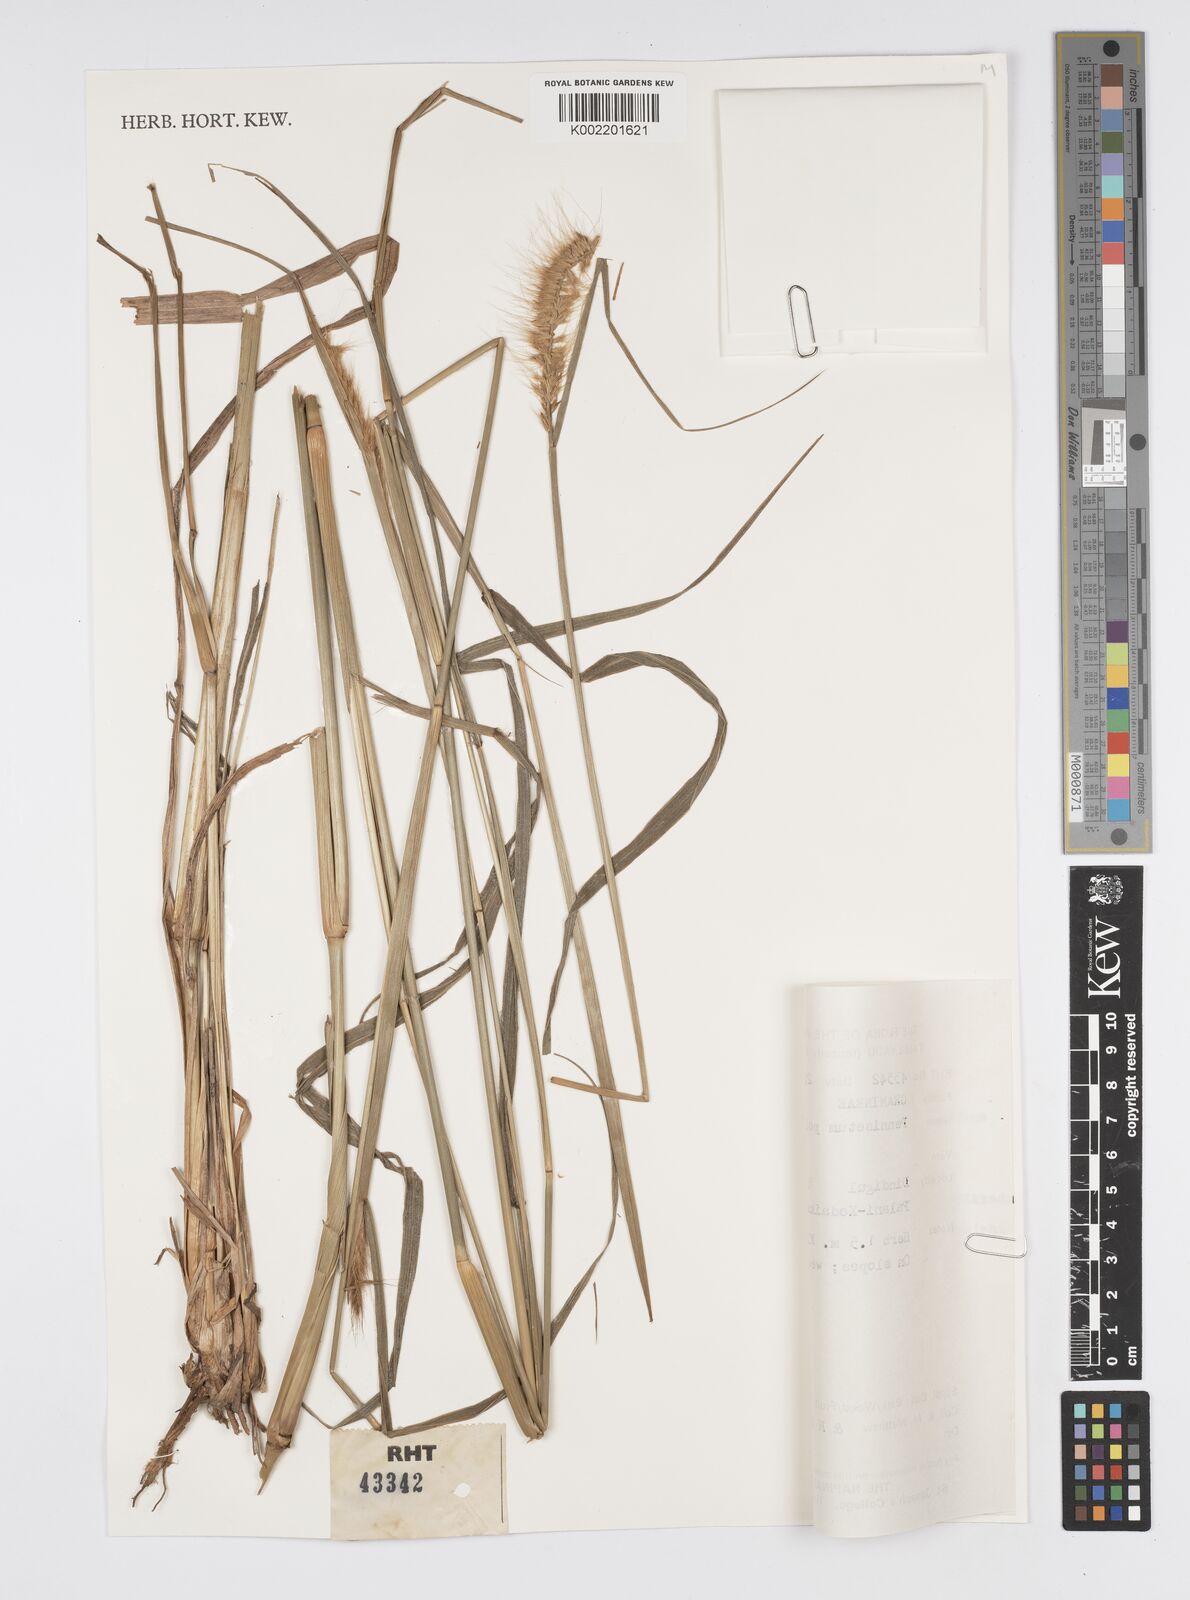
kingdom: Plantae
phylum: Tracheophyta
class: Liliopsida
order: Poales
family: Poaceae
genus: Setaria
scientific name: Setaria parviflora
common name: Knotroot bristle-grass
